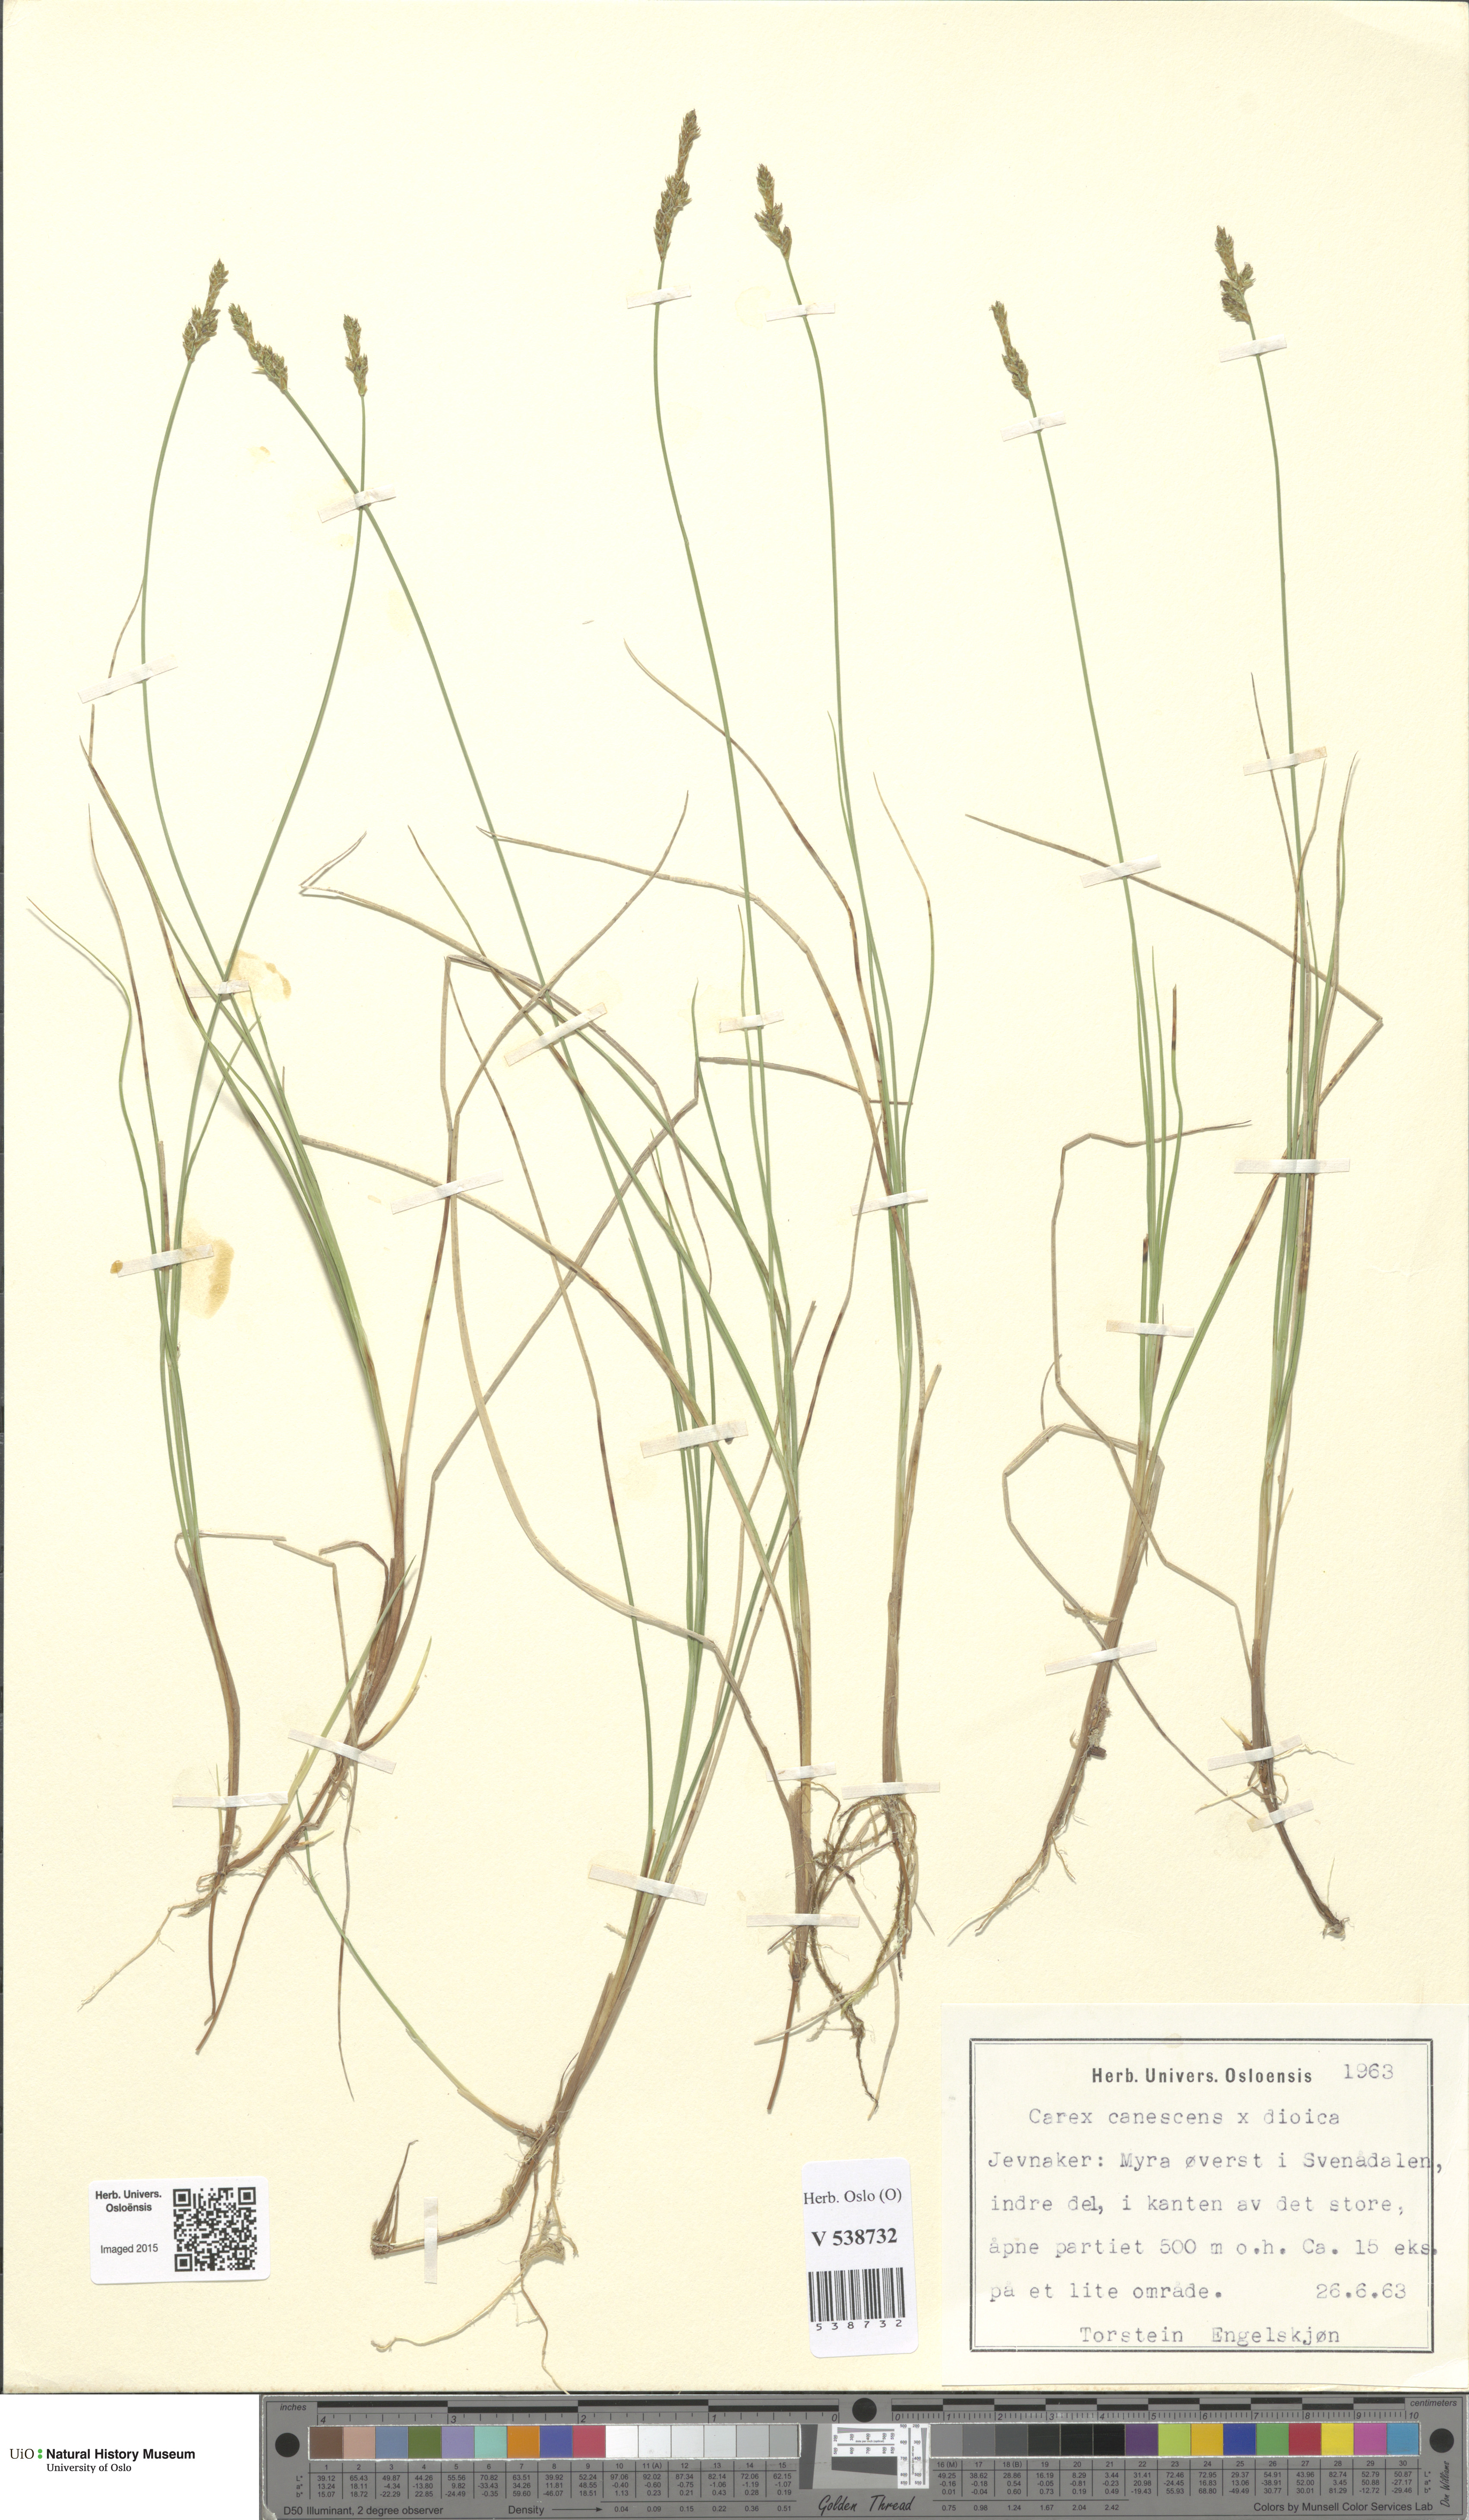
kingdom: Plantae
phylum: Tracheophyta
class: Liliopsida
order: Poales
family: Cyperaceae
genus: Carex
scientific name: Carex
